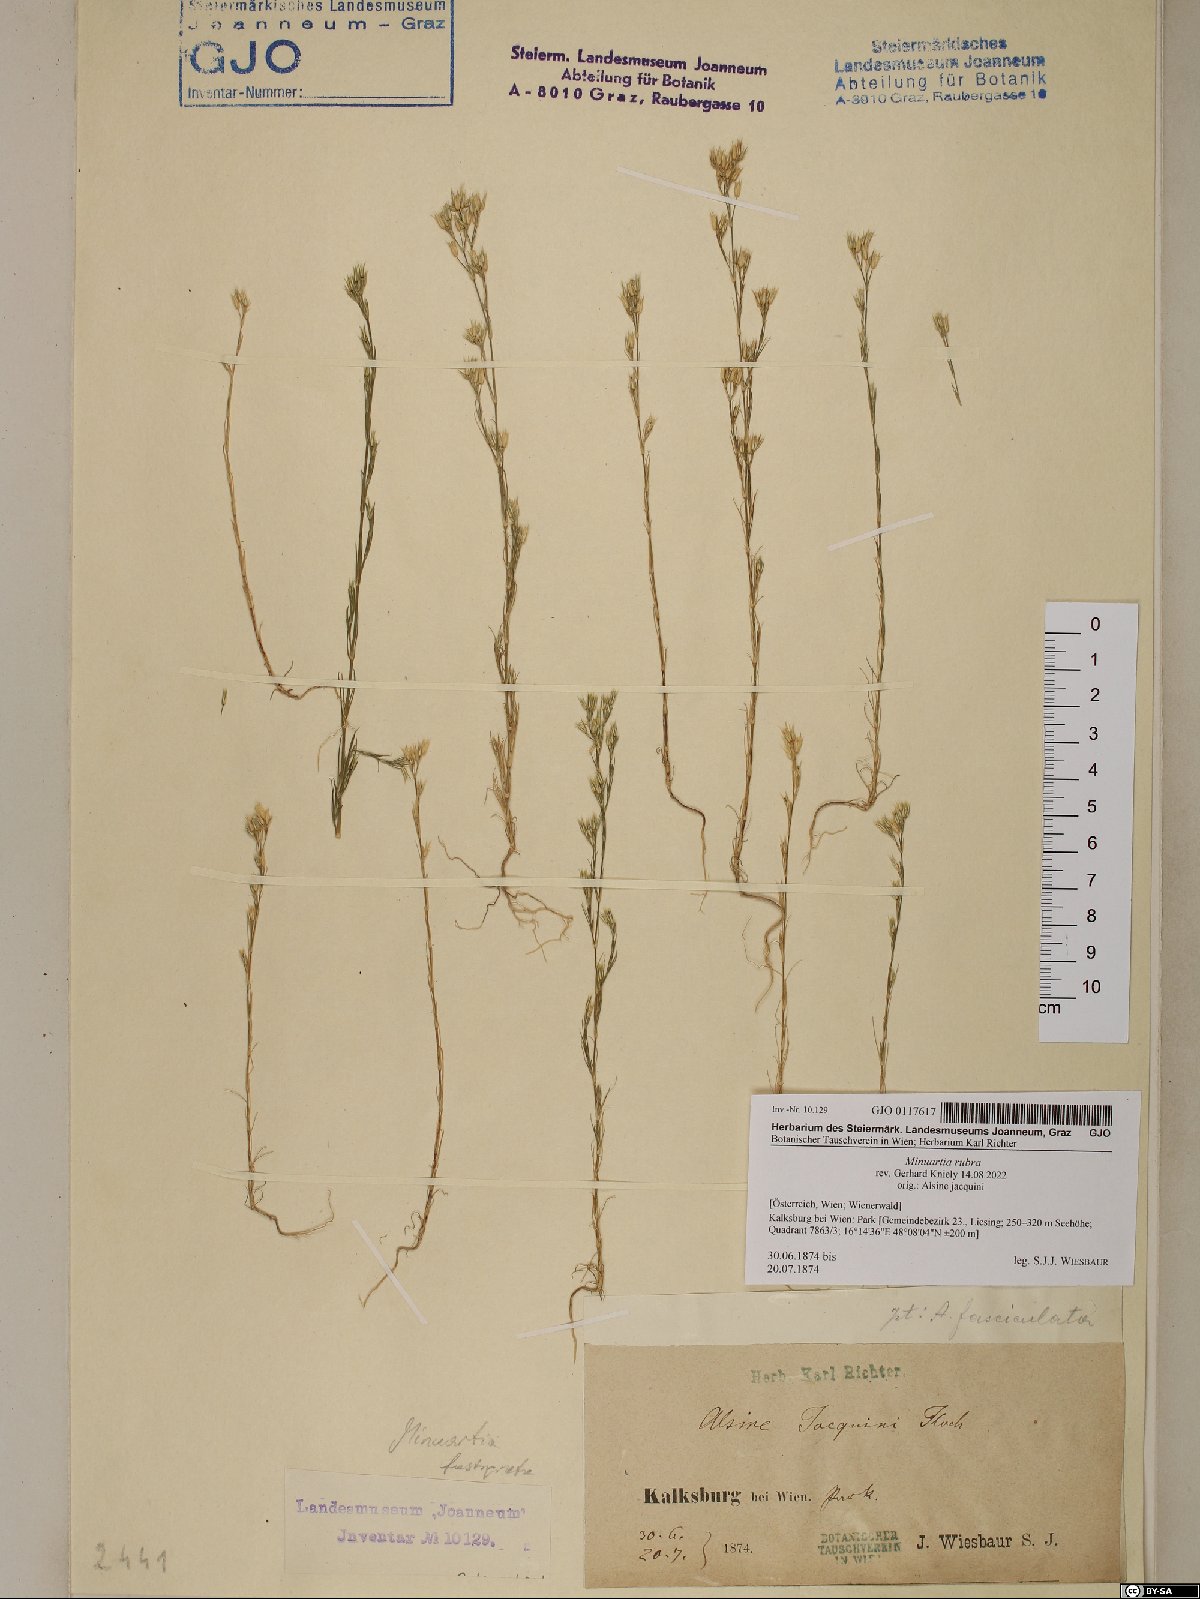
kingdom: Plantae
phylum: Tracheophyta
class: Magnoliopsida
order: Caryophyllales
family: Caryophyllaceae
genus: Minuartia
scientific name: Minuartia mucronata
